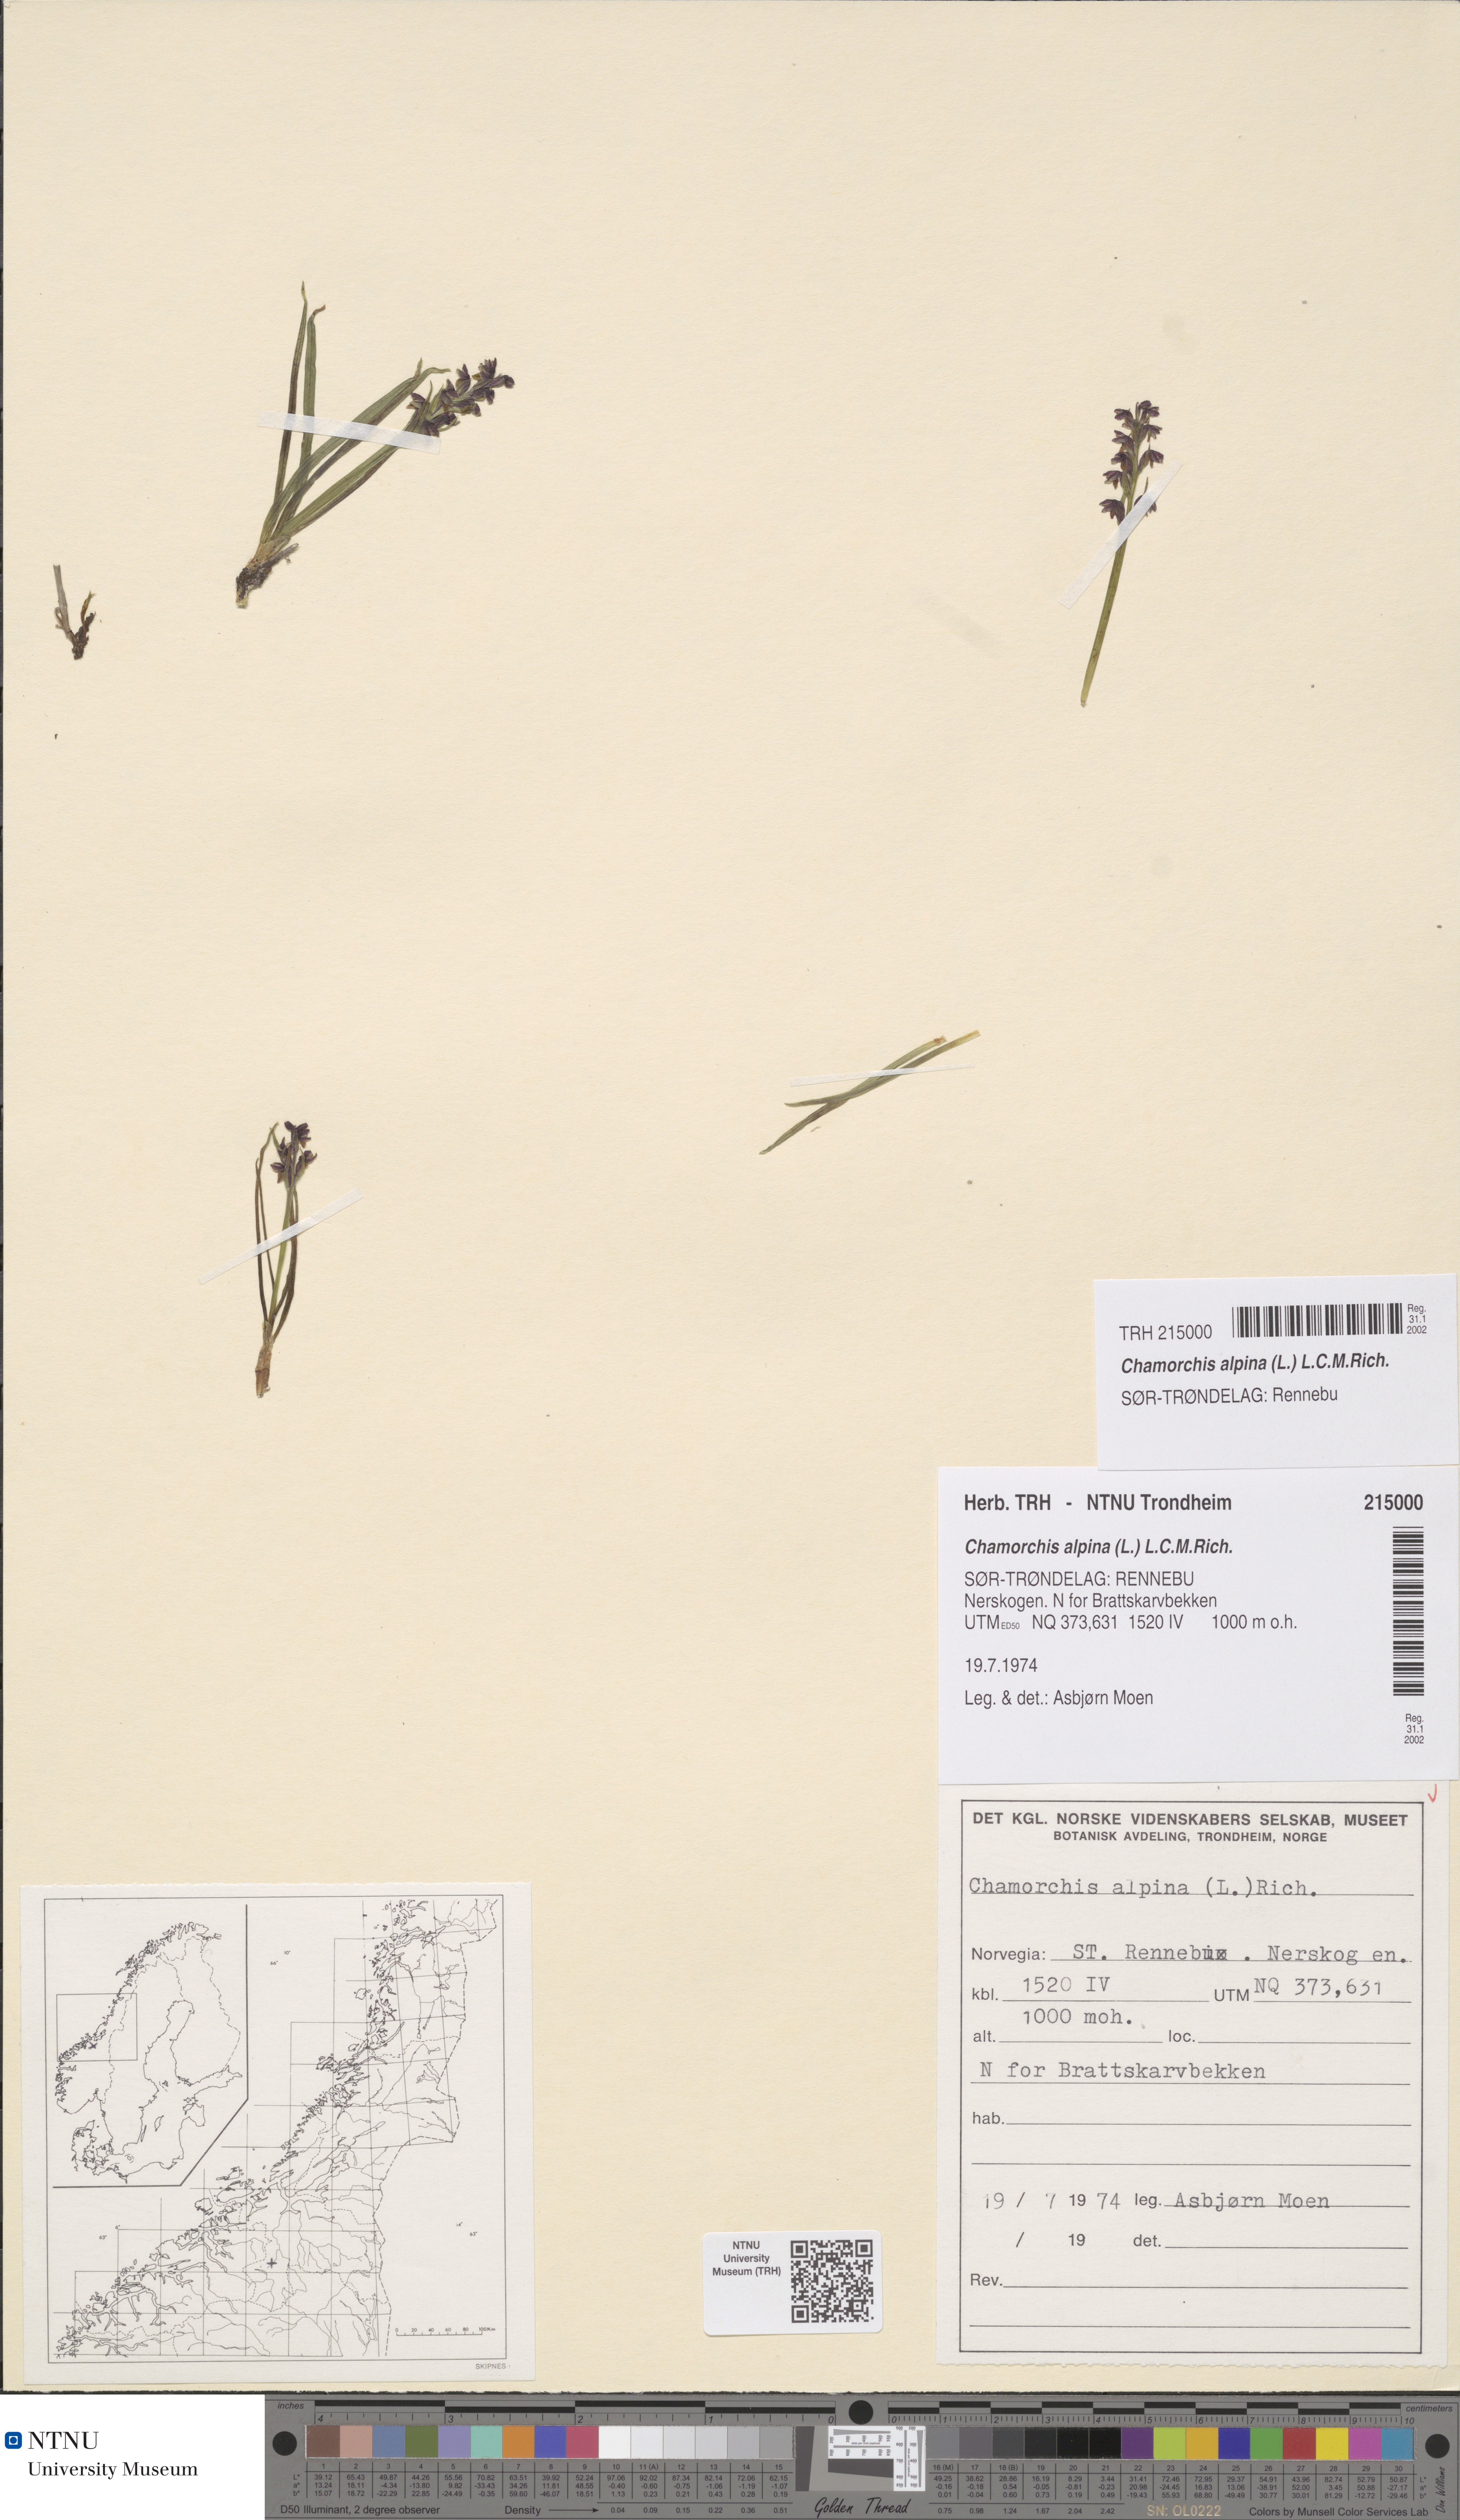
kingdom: Plantae
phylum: Tracheophyta
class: Liliopsida
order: Asparagales
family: Orchidaceae
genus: Chamorchis
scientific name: Chamorchis alpina
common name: Alpine chamorchis
